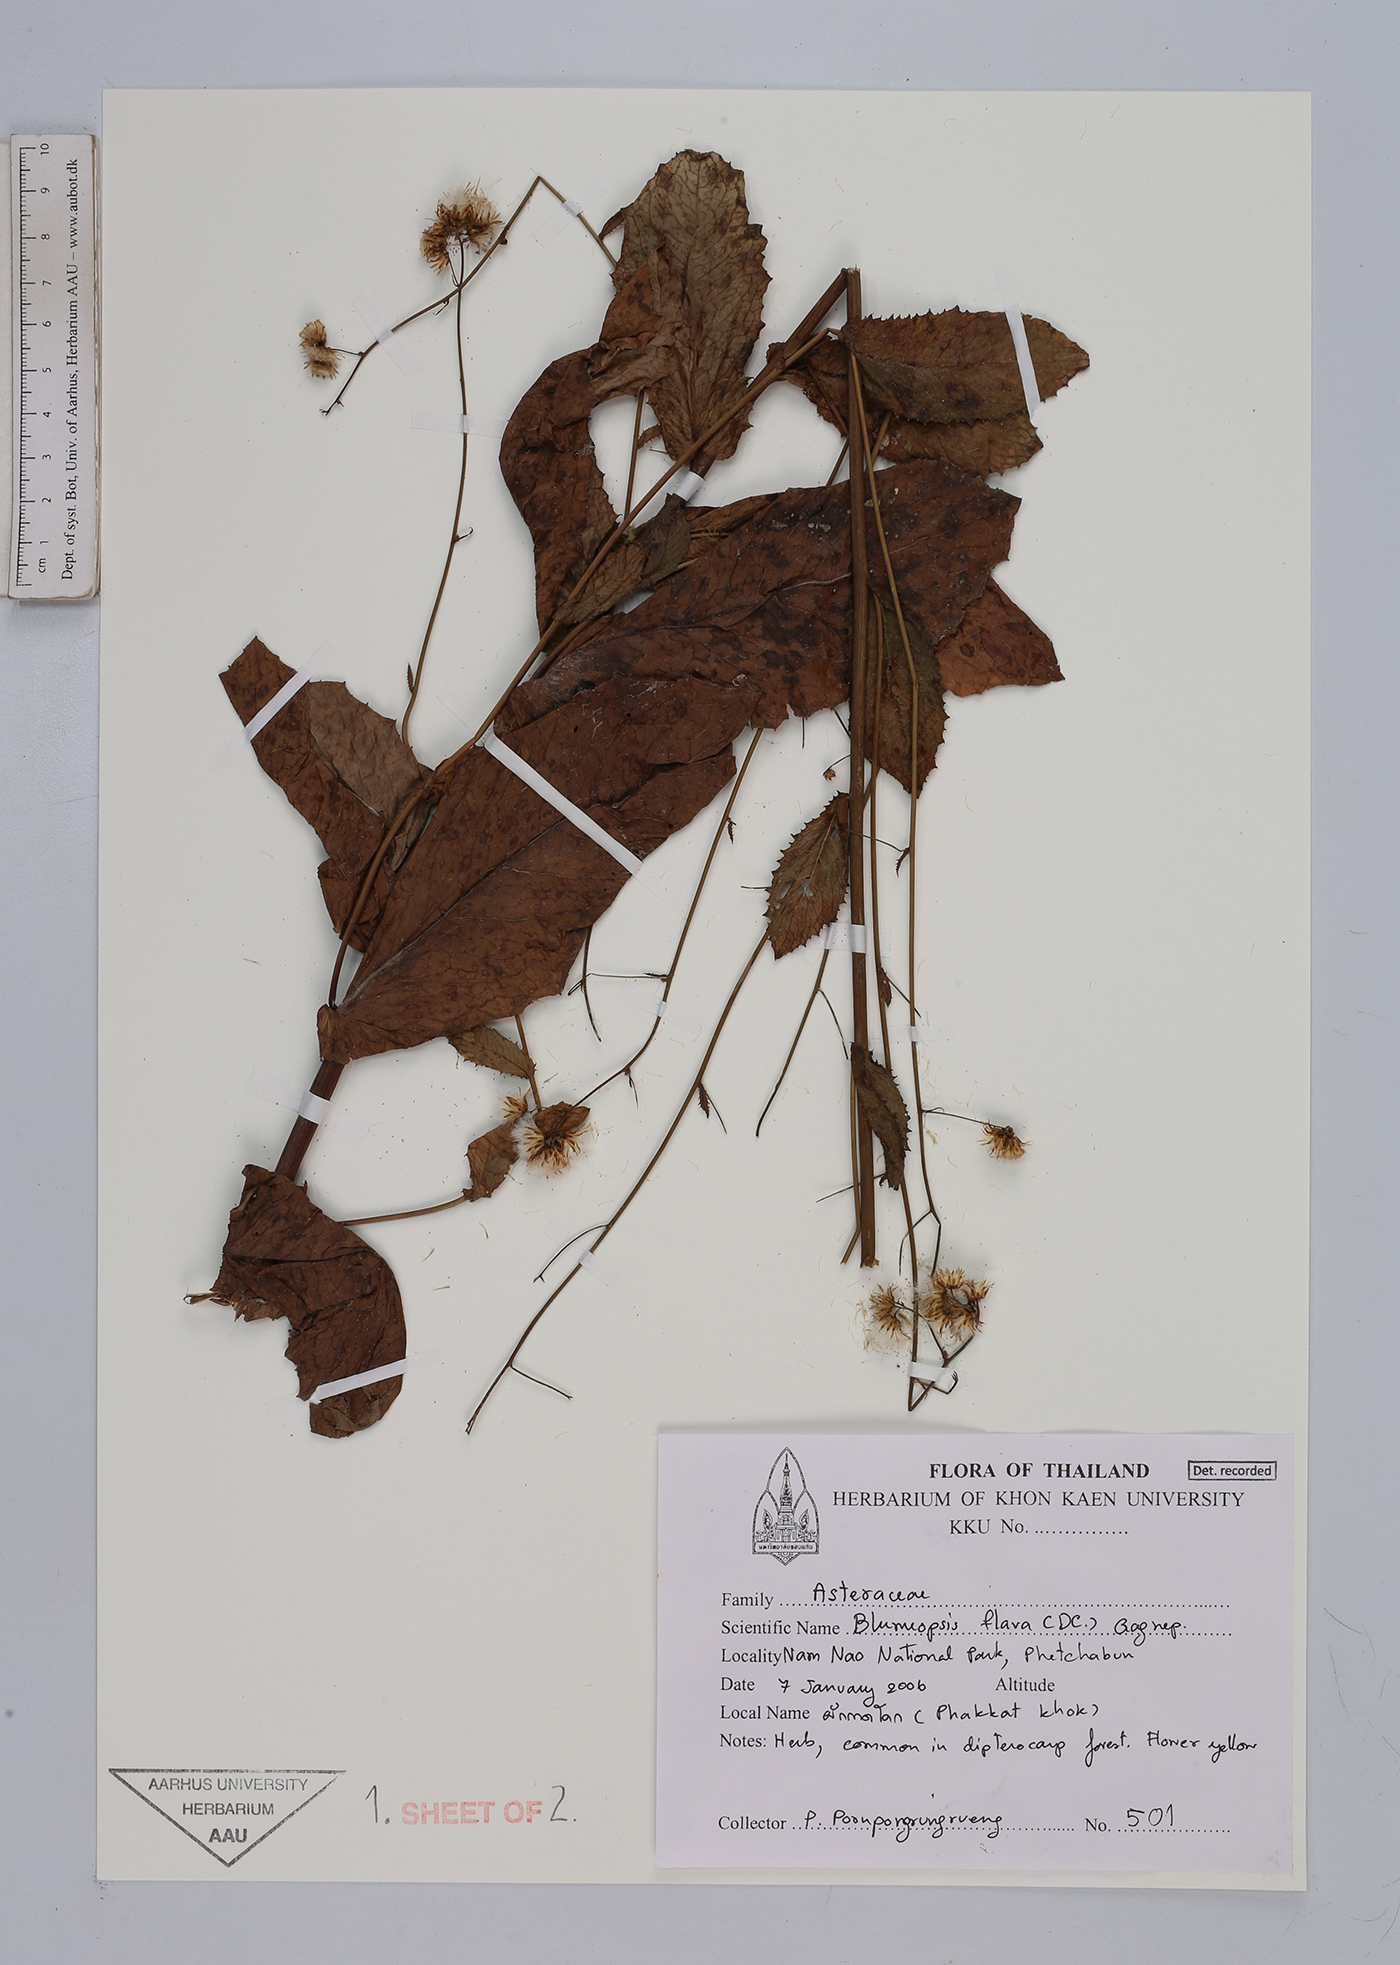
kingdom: Plantae
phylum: Tracheophyta
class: Magnoliopsida
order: Asterales
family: Asteraceae
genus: Blumeopsis
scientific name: Blumeopsis flava
